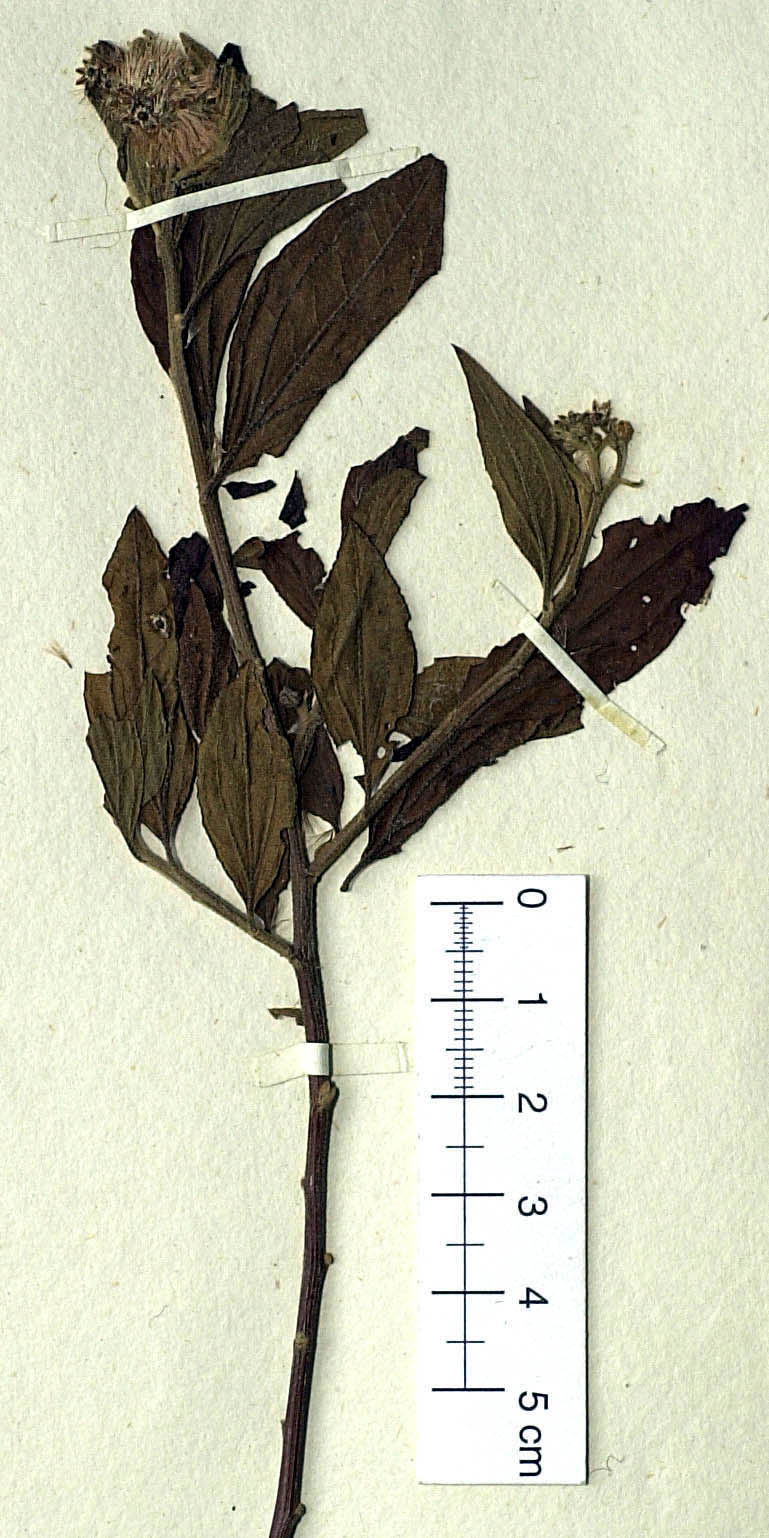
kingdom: Plantae
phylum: Tracheophyta
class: Magnoliopsida
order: Asterales
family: Asteraceae
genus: Baccharis
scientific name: Baccharis trinervis
